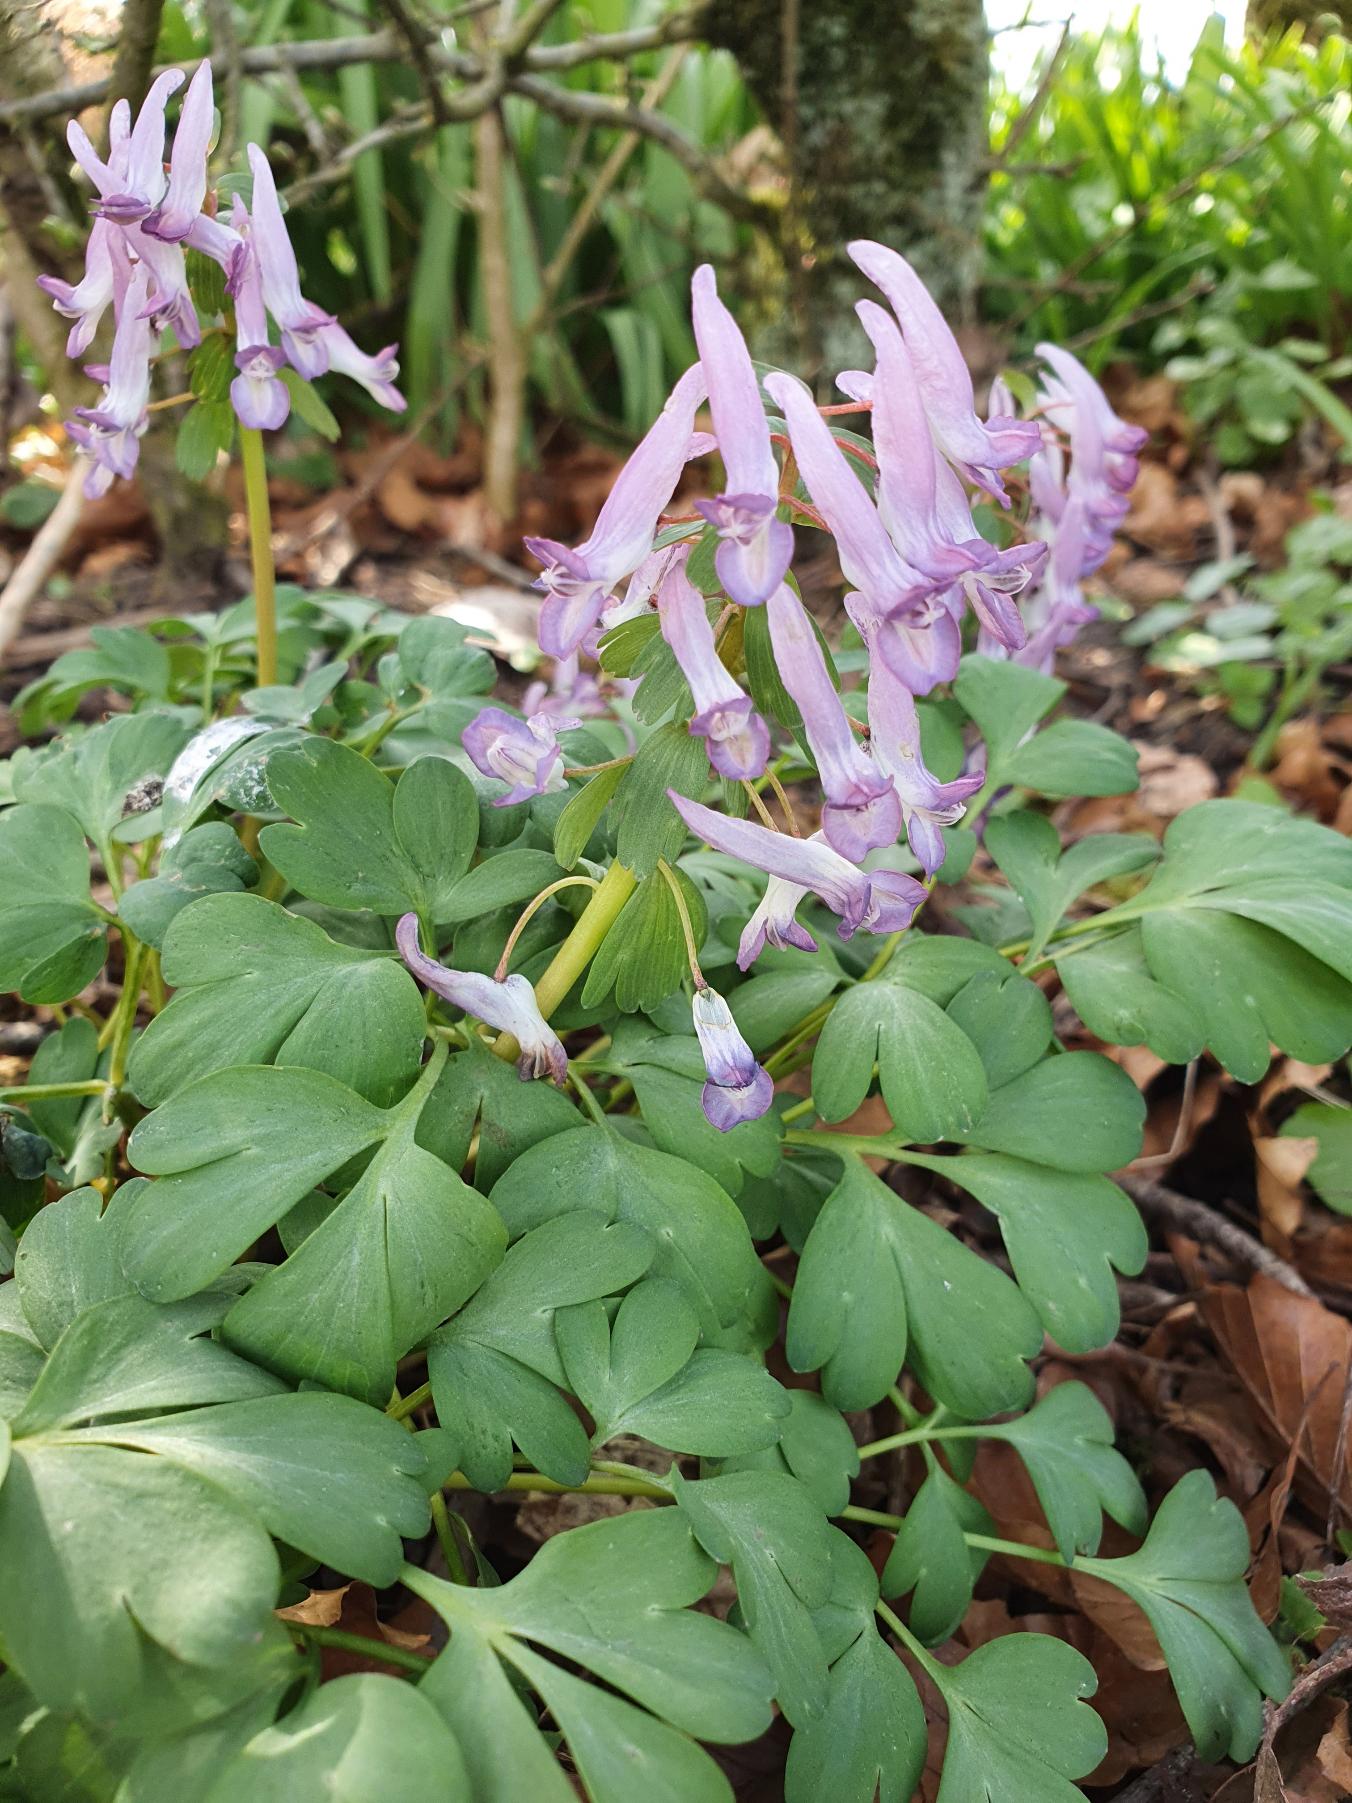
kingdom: Plantae
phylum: Tracheophyta
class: Magnoliopsida
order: Ranunculales
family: Papaveraceae
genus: Corydalis
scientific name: Corydalis solida
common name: Langstilket lærkespore
